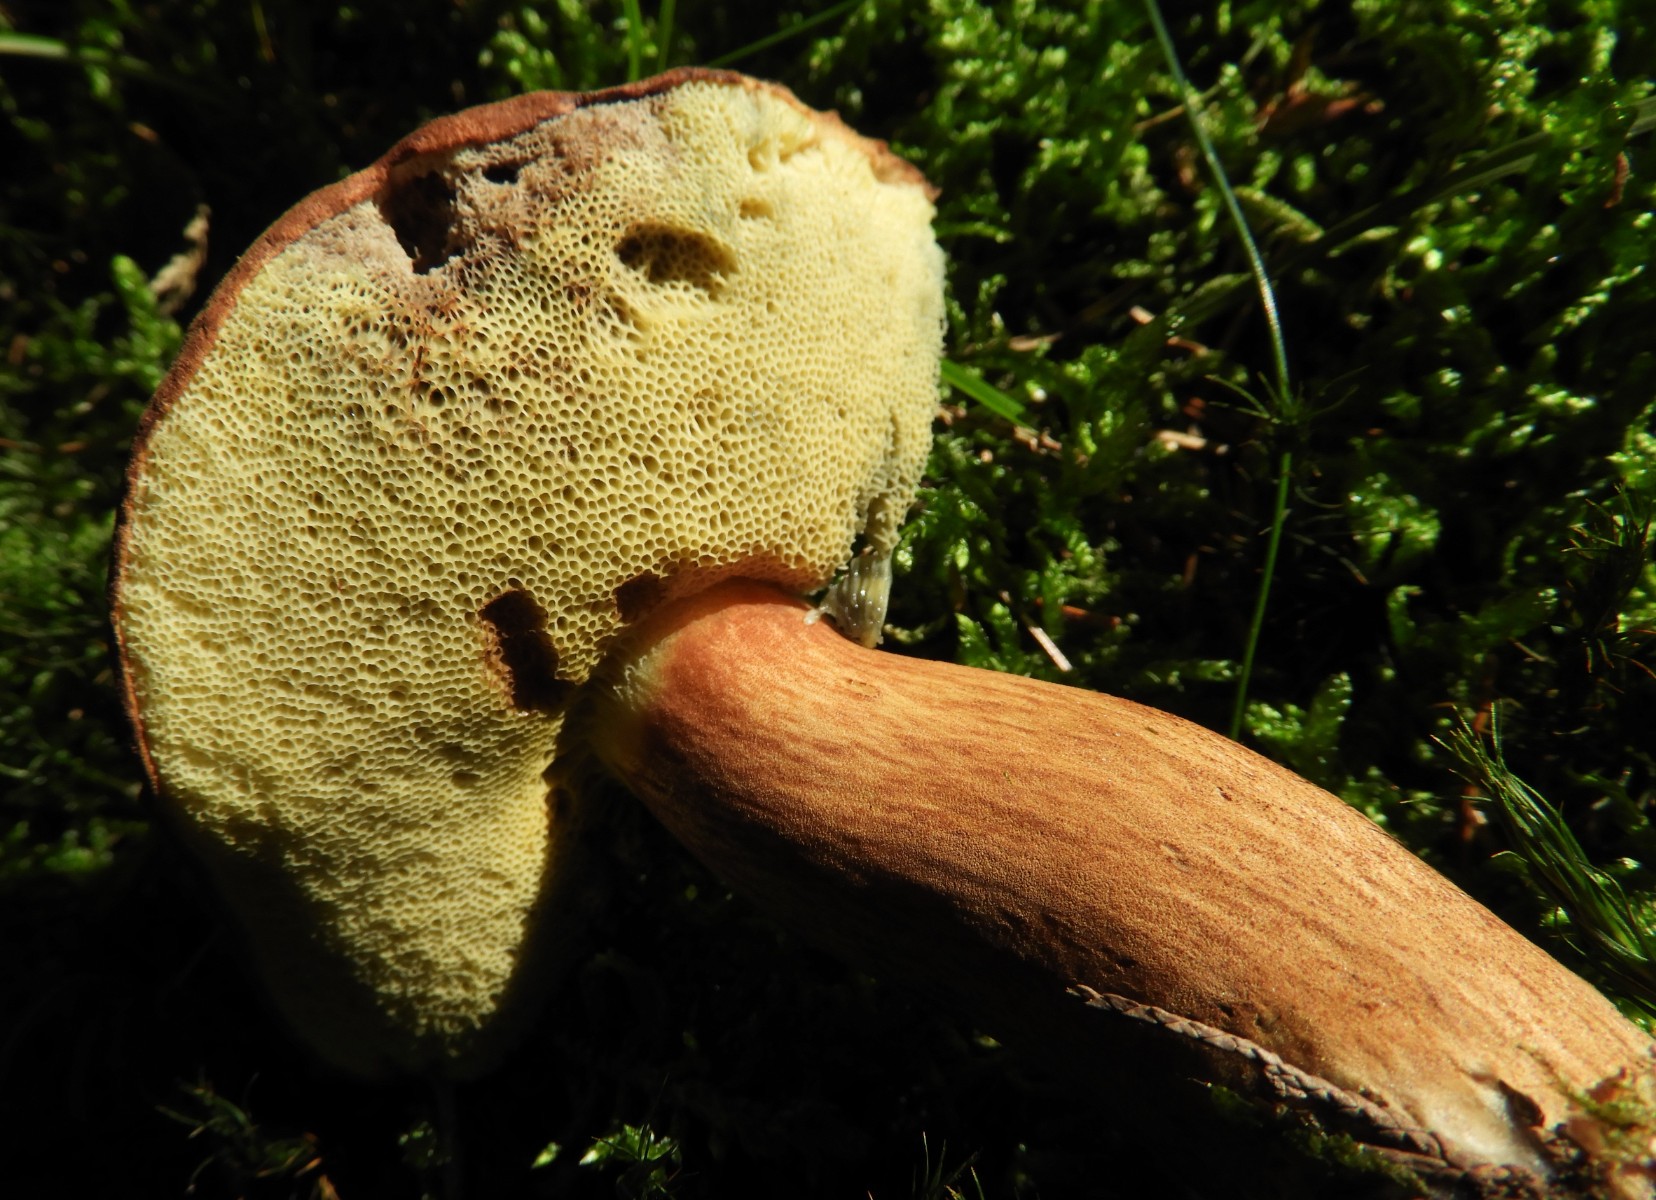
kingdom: Fungi
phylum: Basidiomycota
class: Agaricomycetes
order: Boletales
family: Boletaceae
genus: Imleria
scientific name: Imleria badia
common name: brunstokket rørhat
